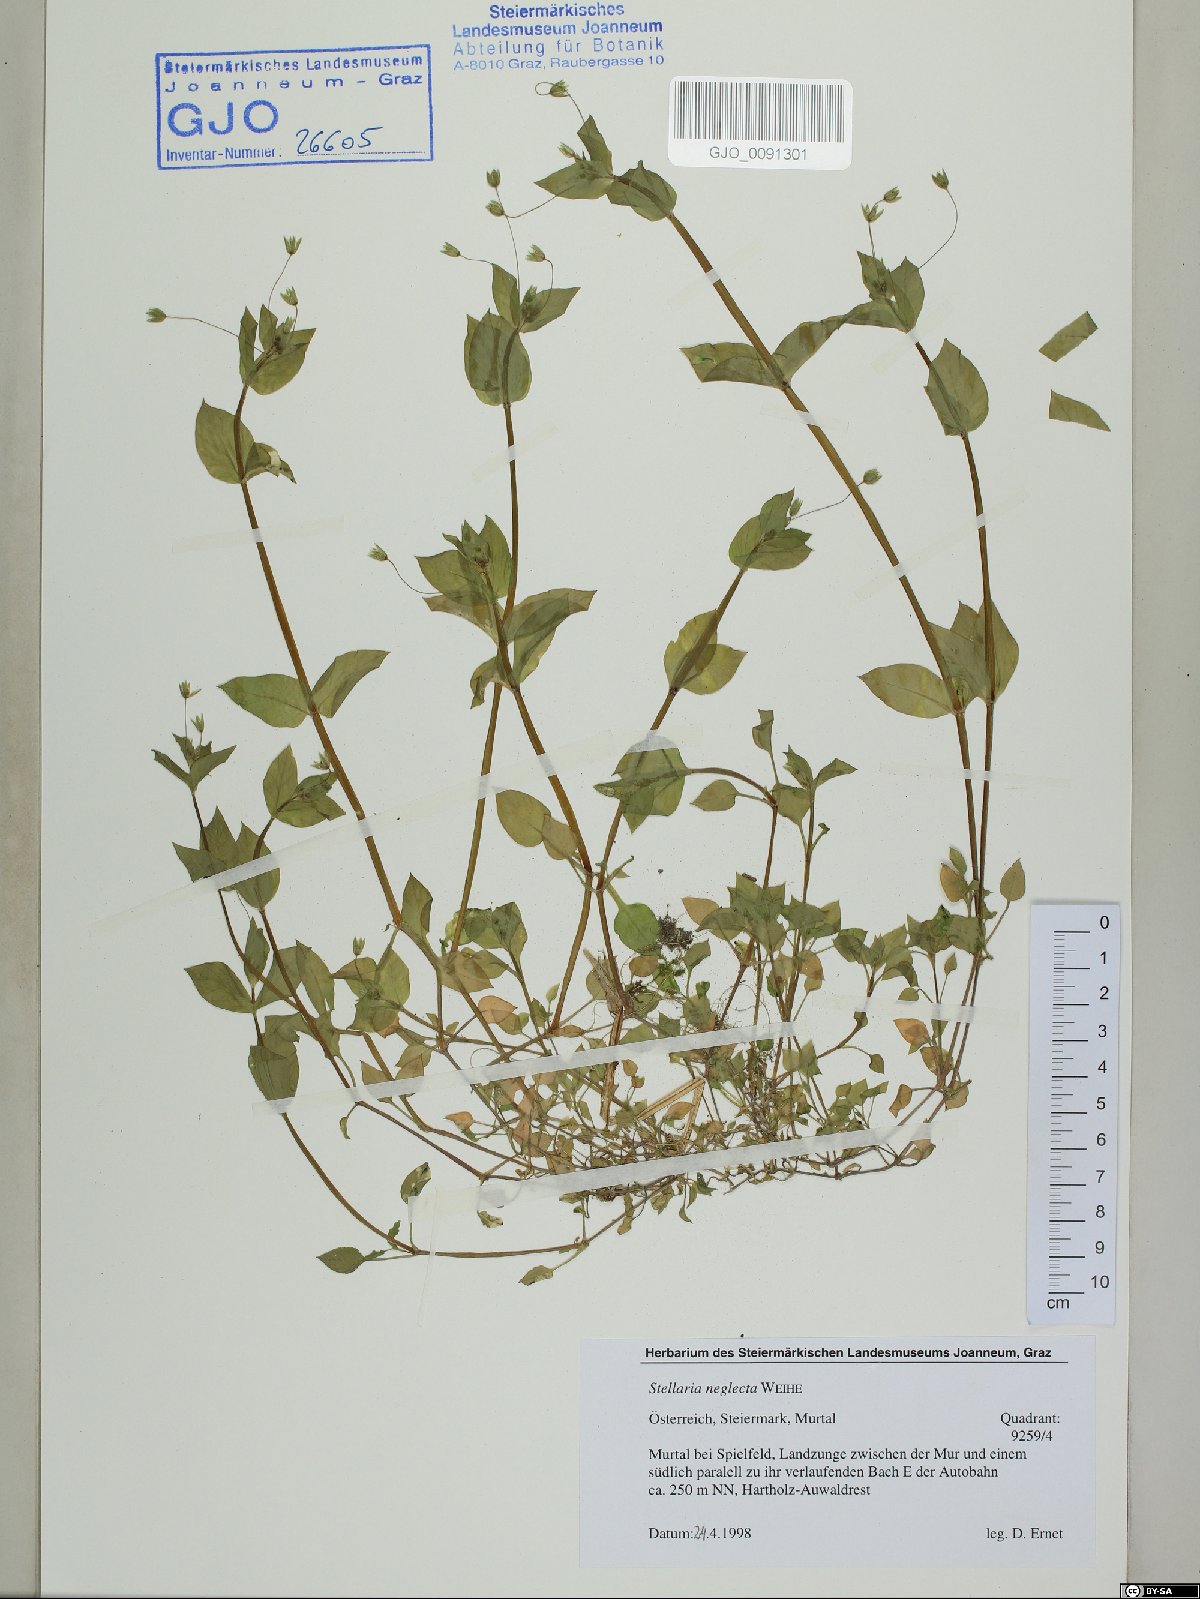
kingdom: Plantae
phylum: Tracheophyta
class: Magnoliopsida
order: Caryophyllales
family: Caryophyllaceae
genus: Stellaria
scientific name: Stellaria neglecta
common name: Greater chickweed
